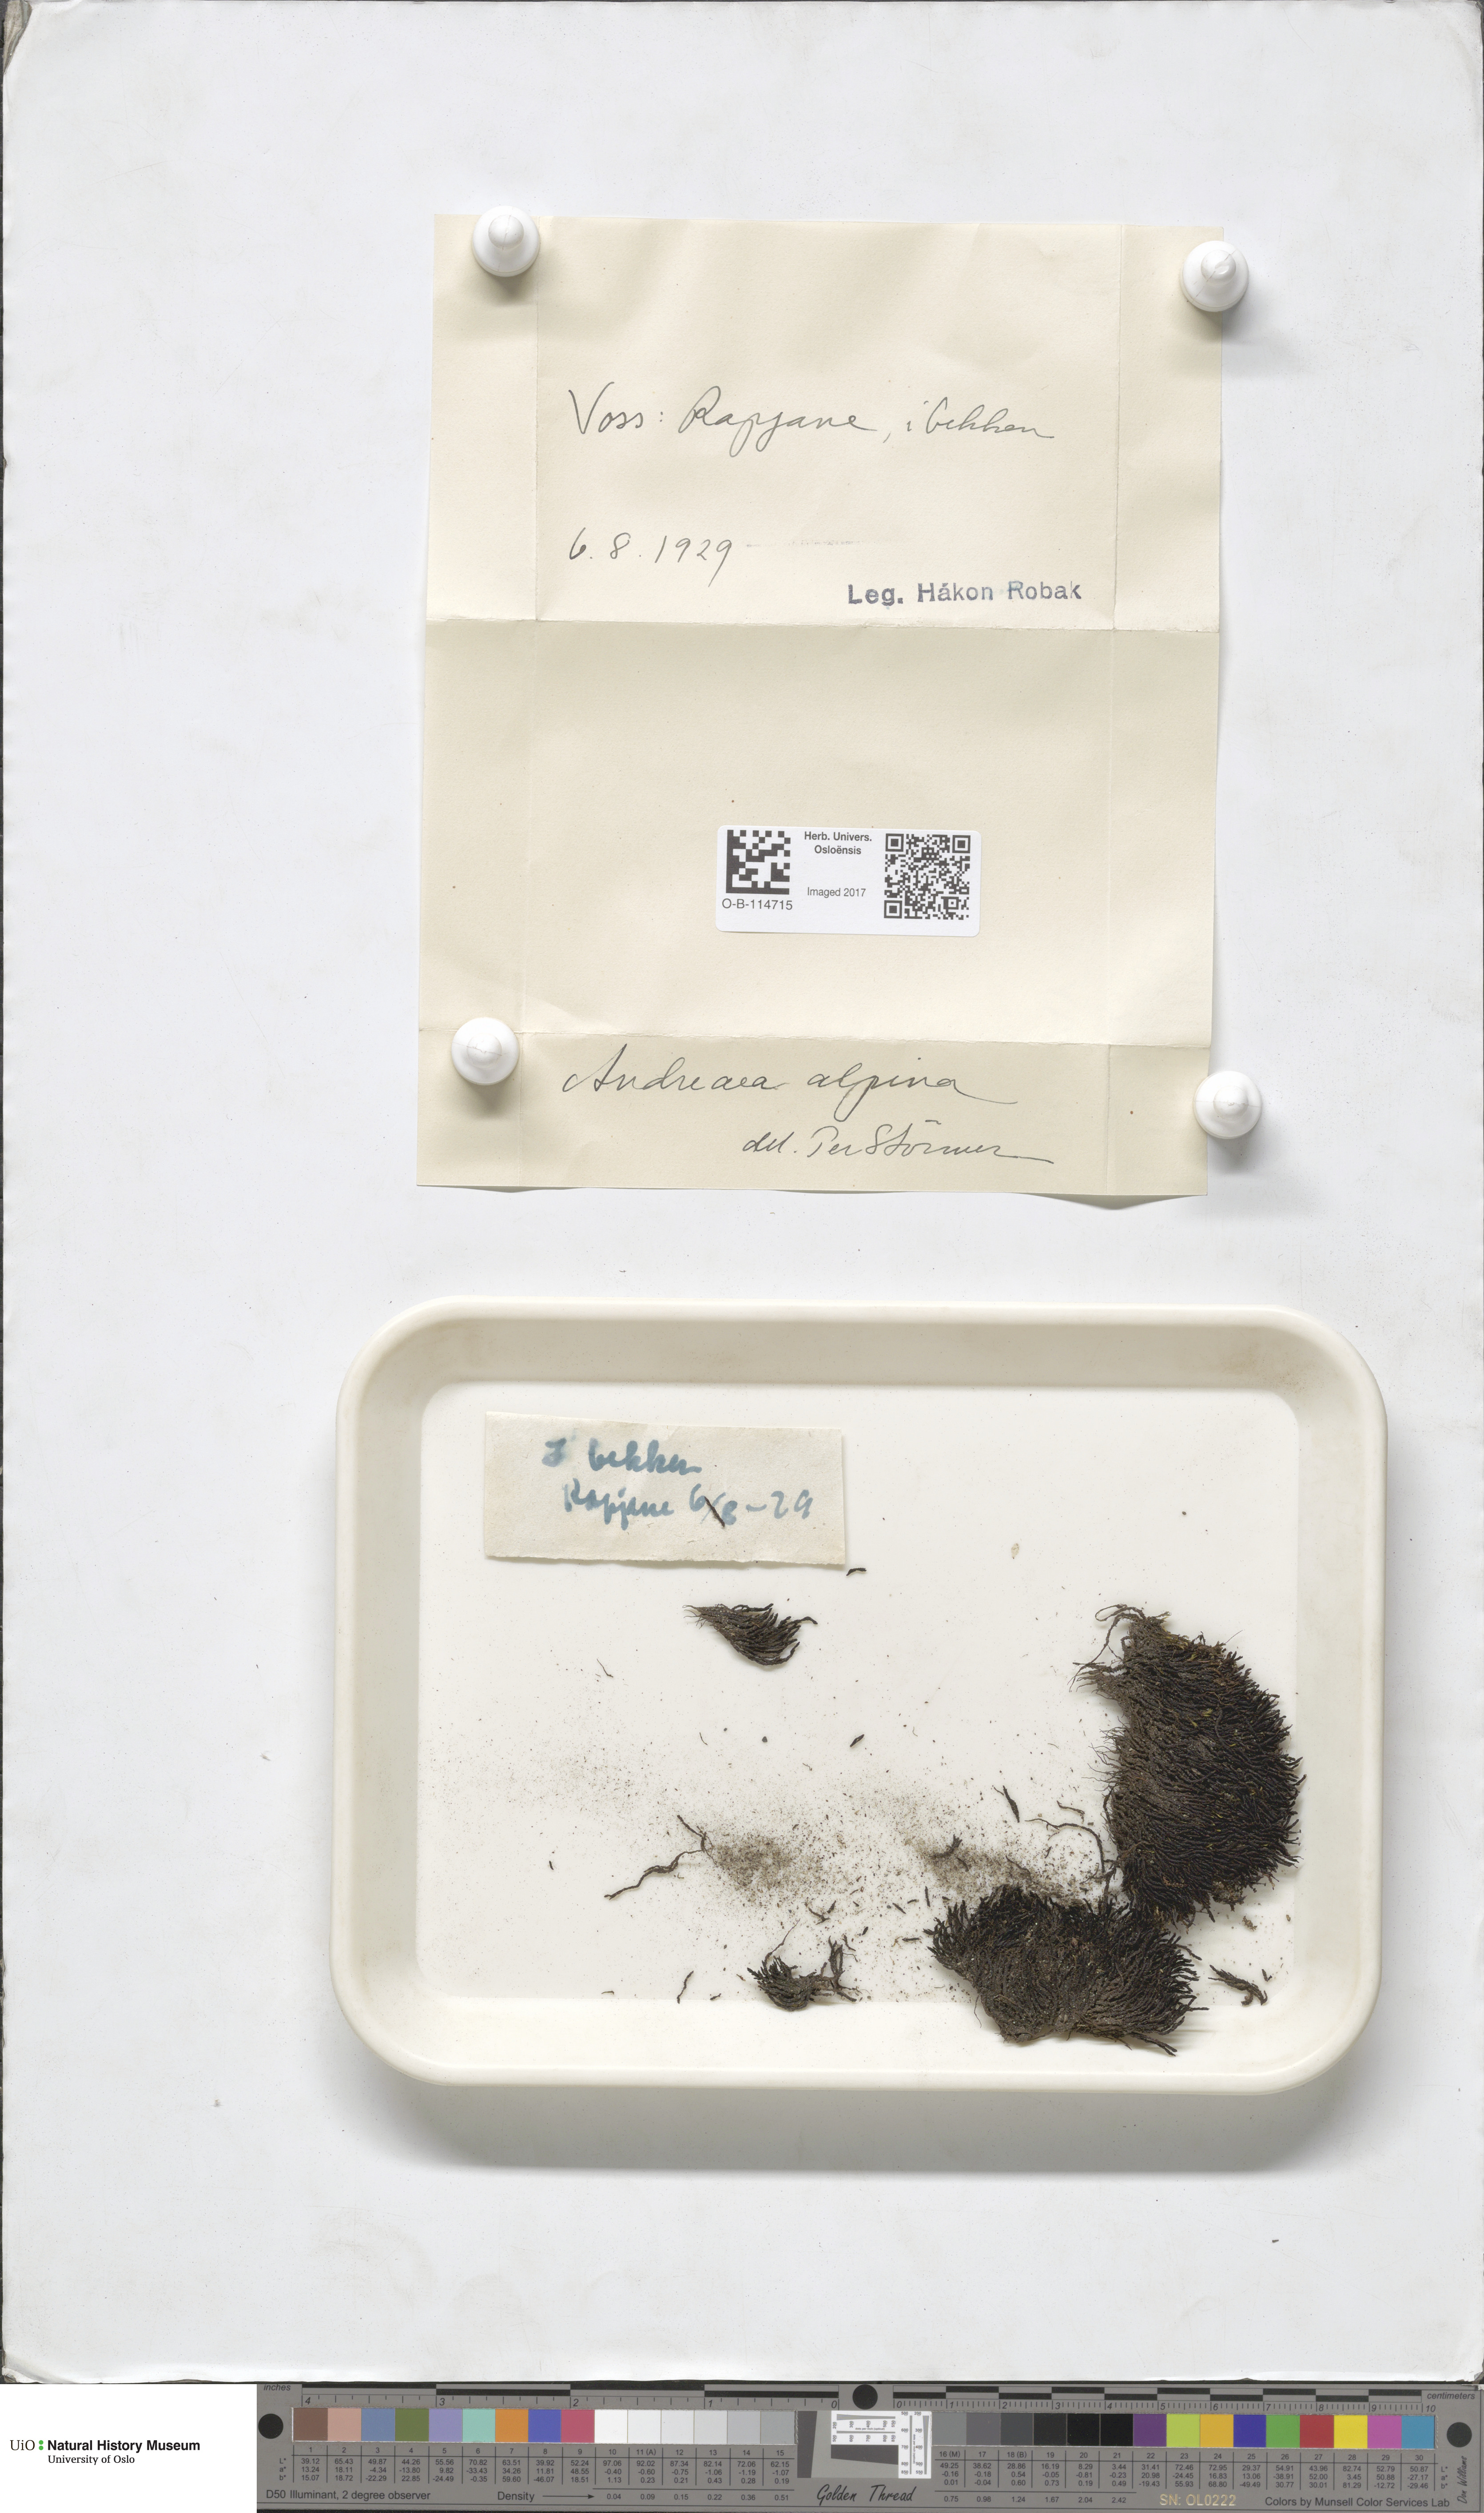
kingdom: Plantae
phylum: Bryophyta
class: Andreaeopsida
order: Andreaeales
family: Andreaeaceae
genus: Andreaea
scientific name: Andreaea hookeri
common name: Alpine rock-moss
